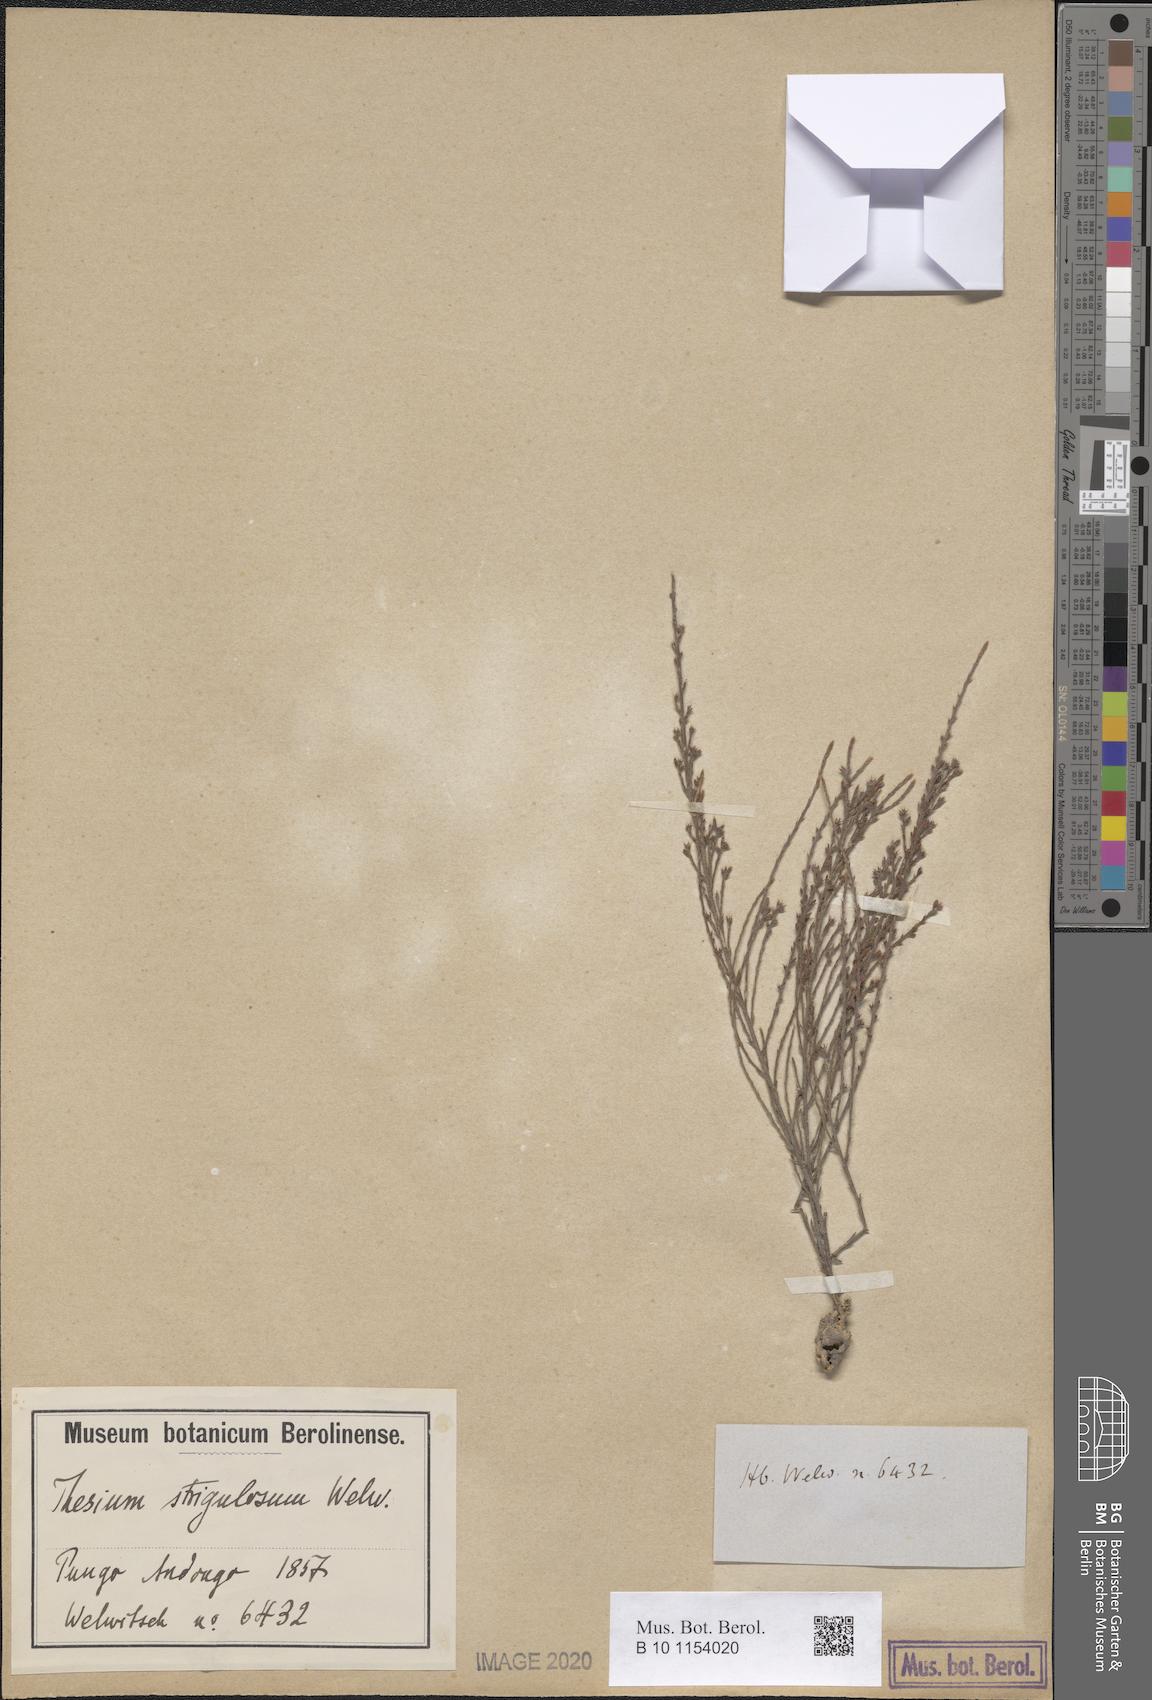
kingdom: Plantae
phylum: Tracheophyta
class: Magnoliopsida
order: Santalales
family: Thesiaceae
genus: Thesium
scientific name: Thesium strigulosum
